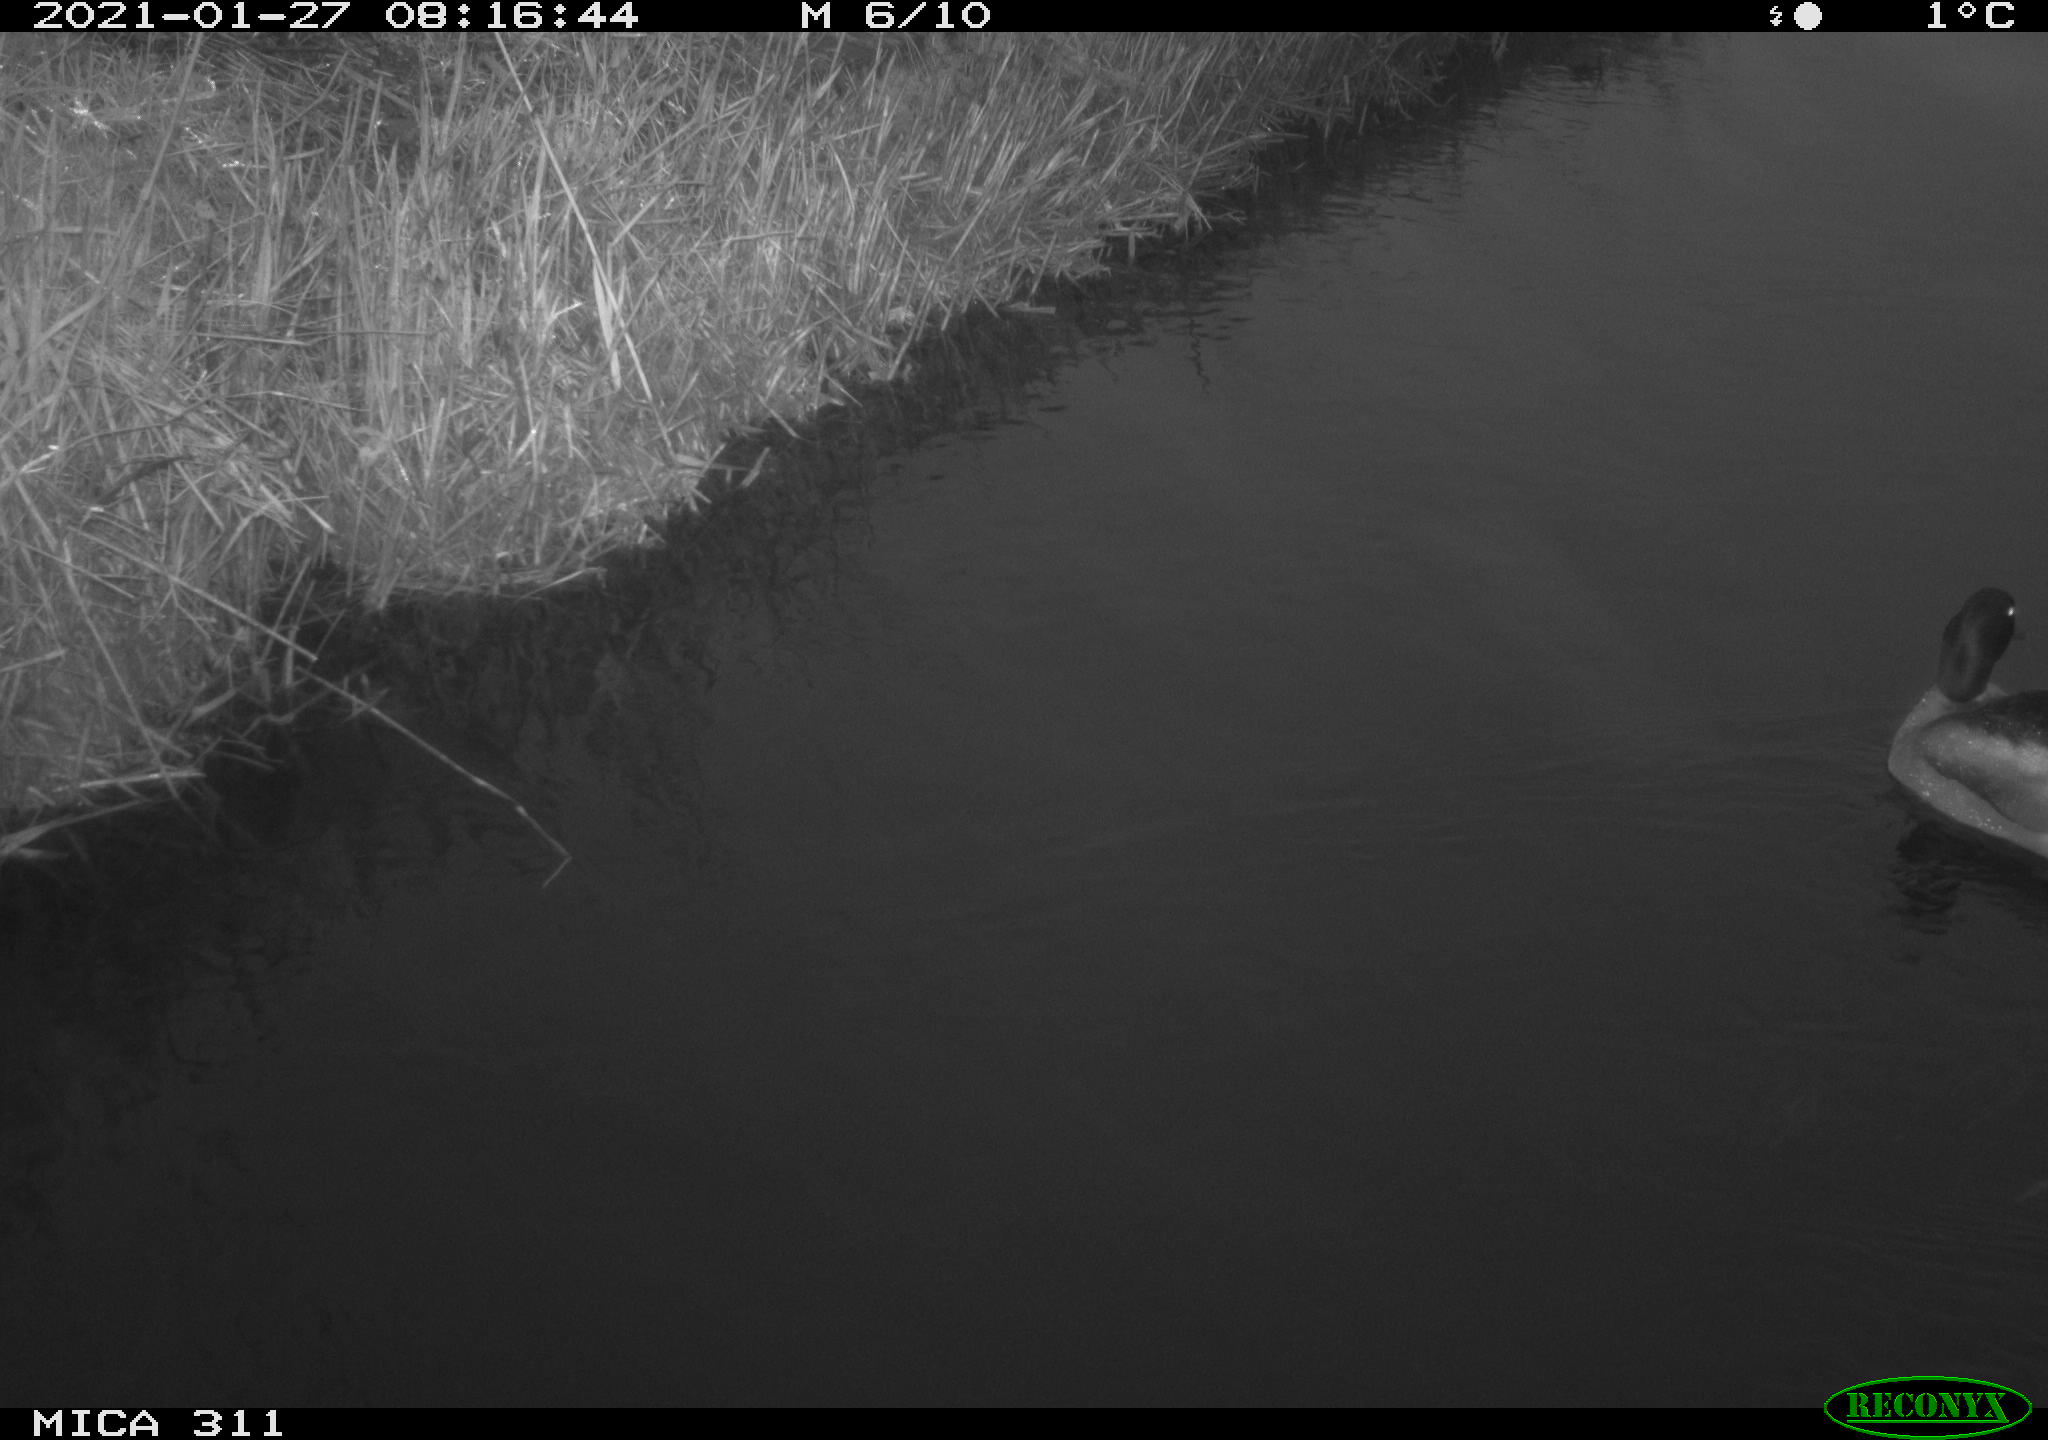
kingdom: Animalia
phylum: Chordata
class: Aves
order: Anseriformes
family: Anatidae
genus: Anas
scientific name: Anas platyrhynchos
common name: Mallard
